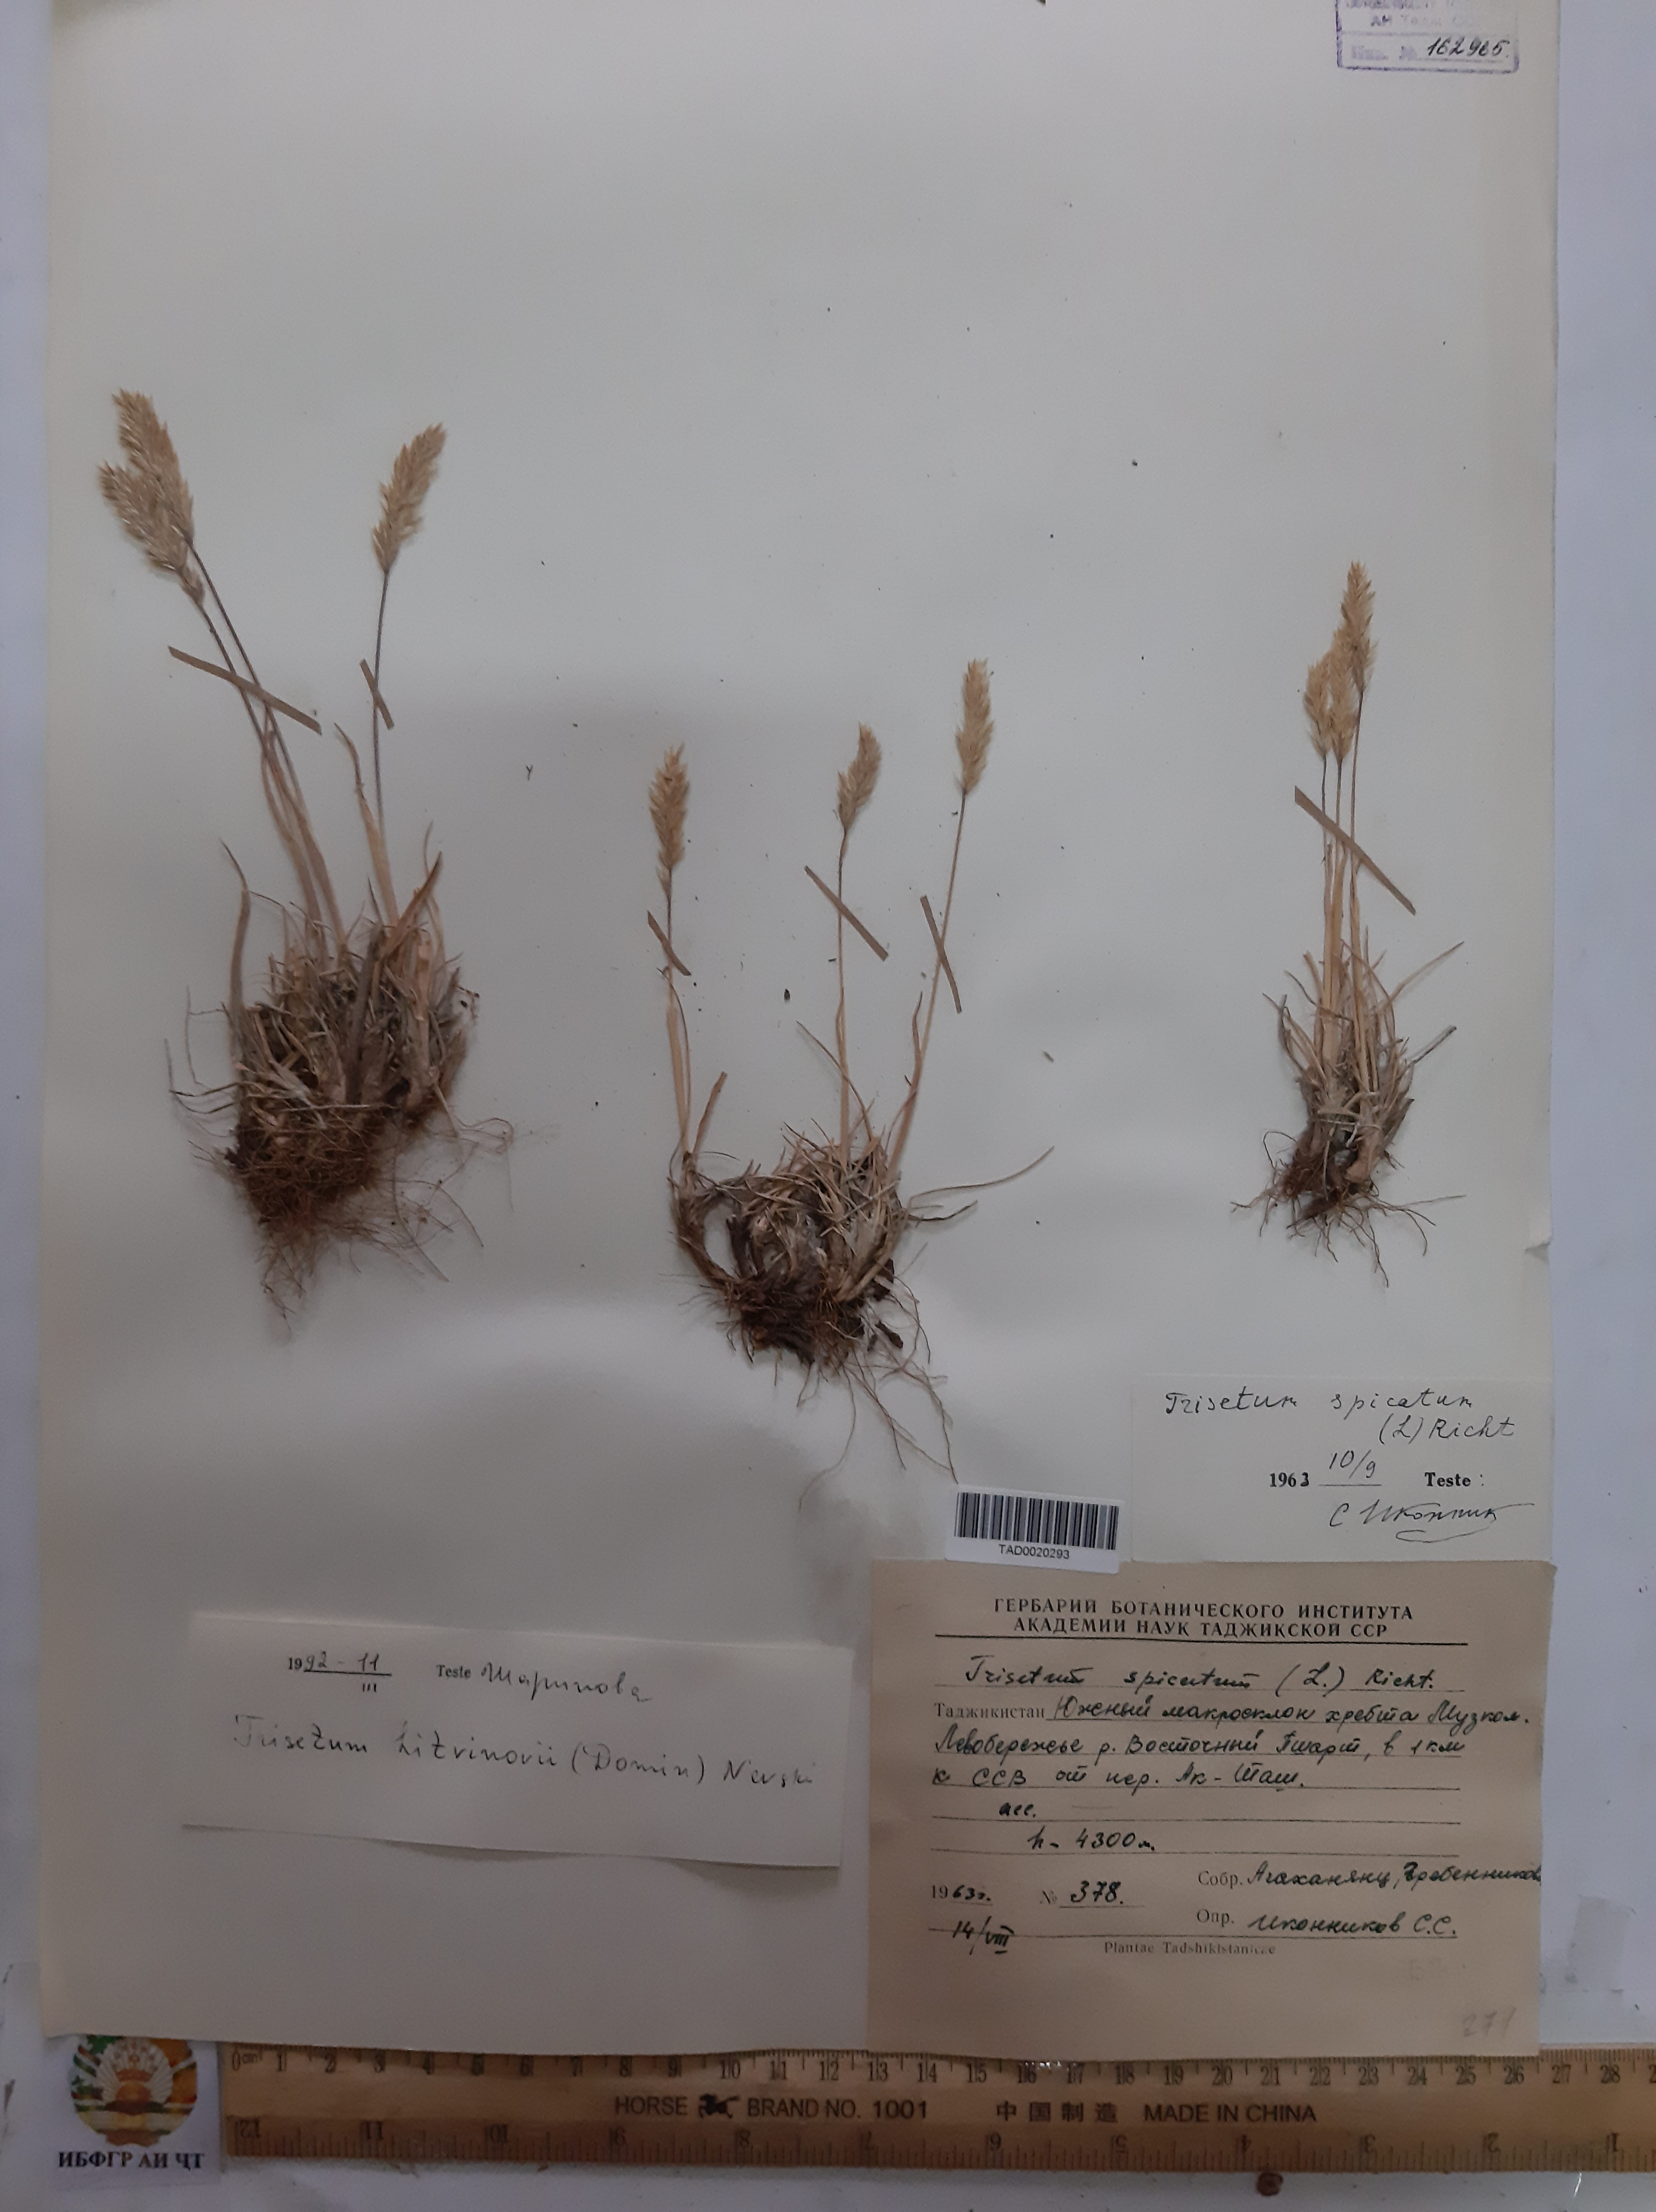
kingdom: Plantae
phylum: Tracheophyta
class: Liliopsida
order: Poales
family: Poaceae
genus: Koeleria
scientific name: Koeleria spicata
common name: Mountain trisetum
